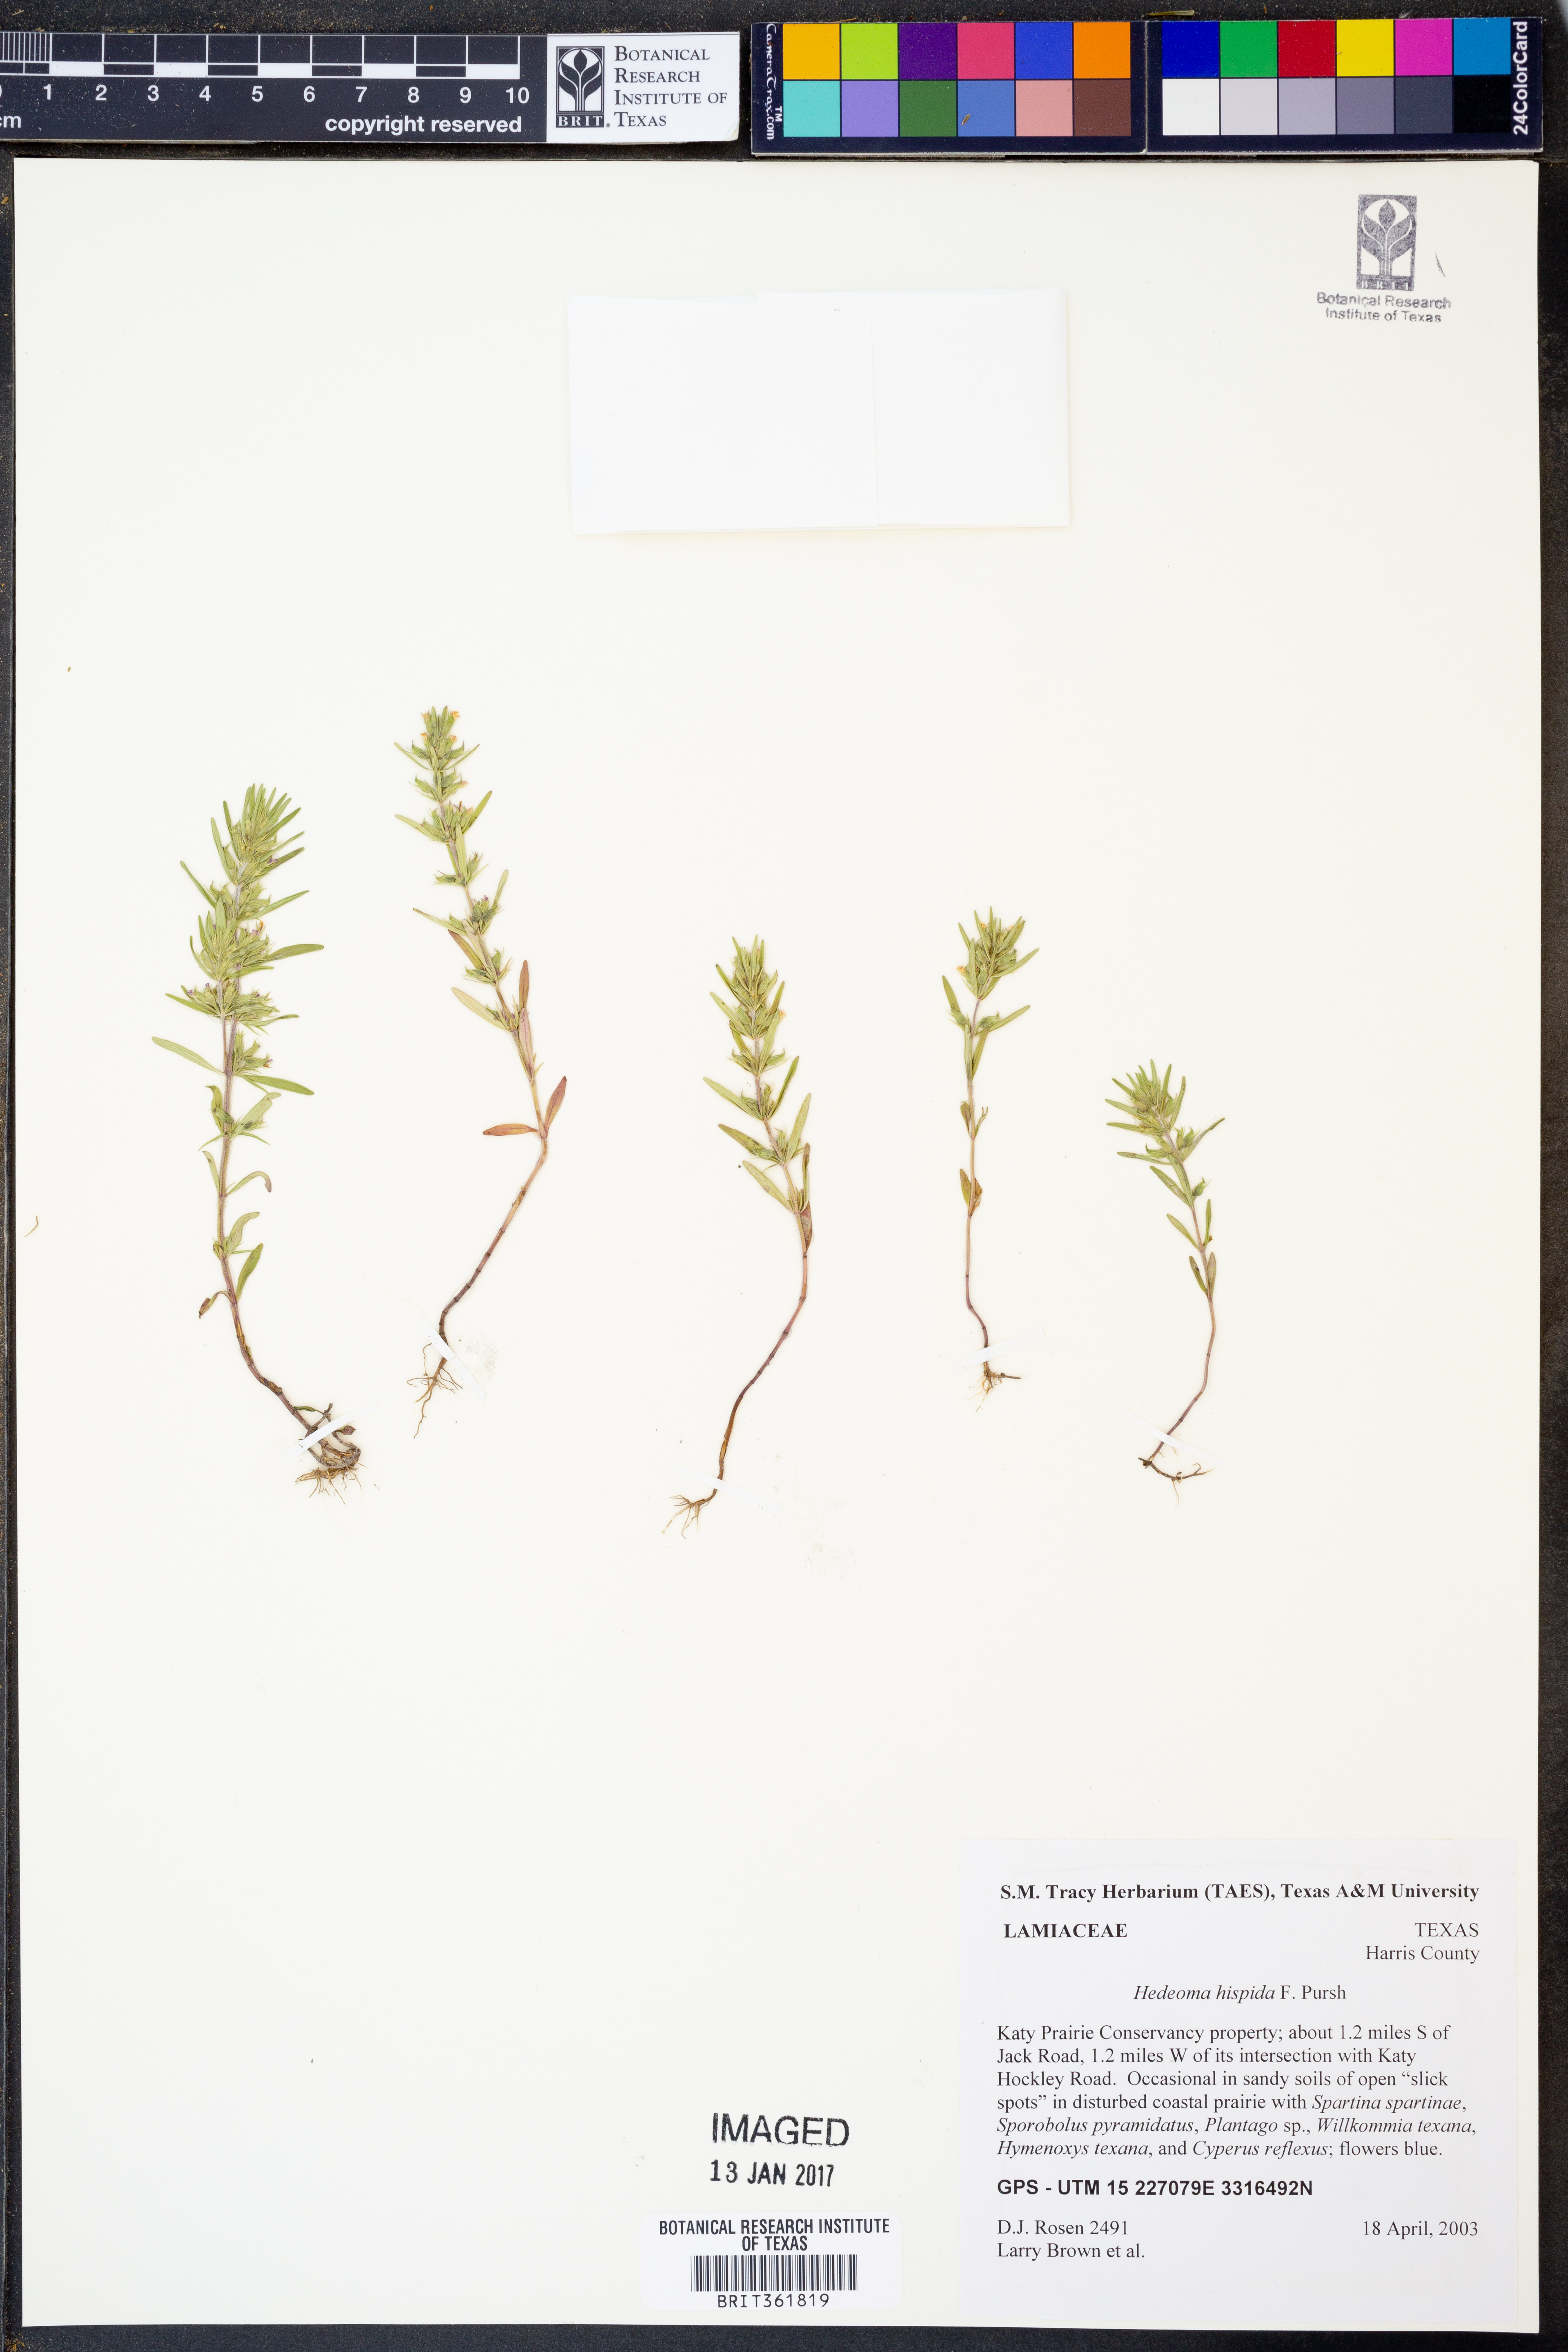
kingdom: Plantae
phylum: Tracheophyta
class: Magnoliopsida
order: Lamiales
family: Lamiaceae
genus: Hedeoma
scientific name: Hedeoma hispida
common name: Mock pennyroyal
